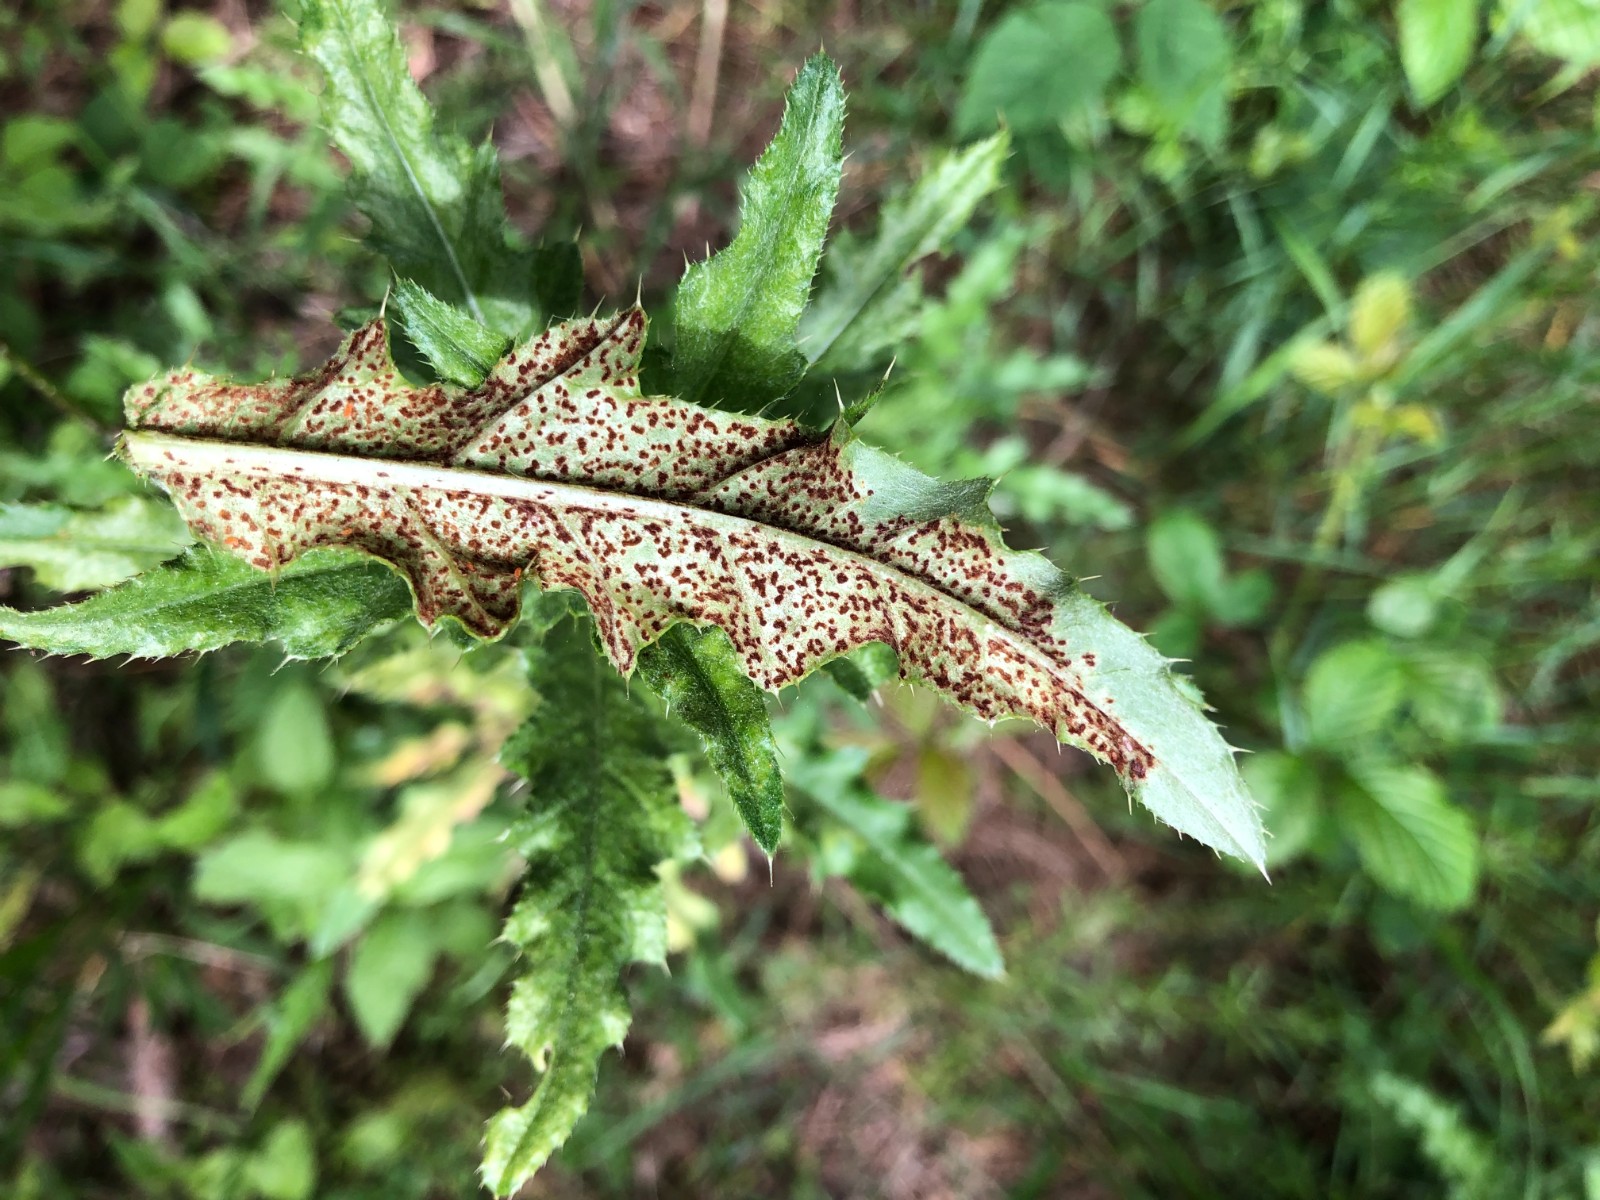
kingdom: Fungi
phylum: Basidiomycota
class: Pucciniomycetes
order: Pucciniales
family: Pucciniaceae
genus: Puccinia
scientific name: Puccinia suaveolens
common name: tidsel-tvecellerust
